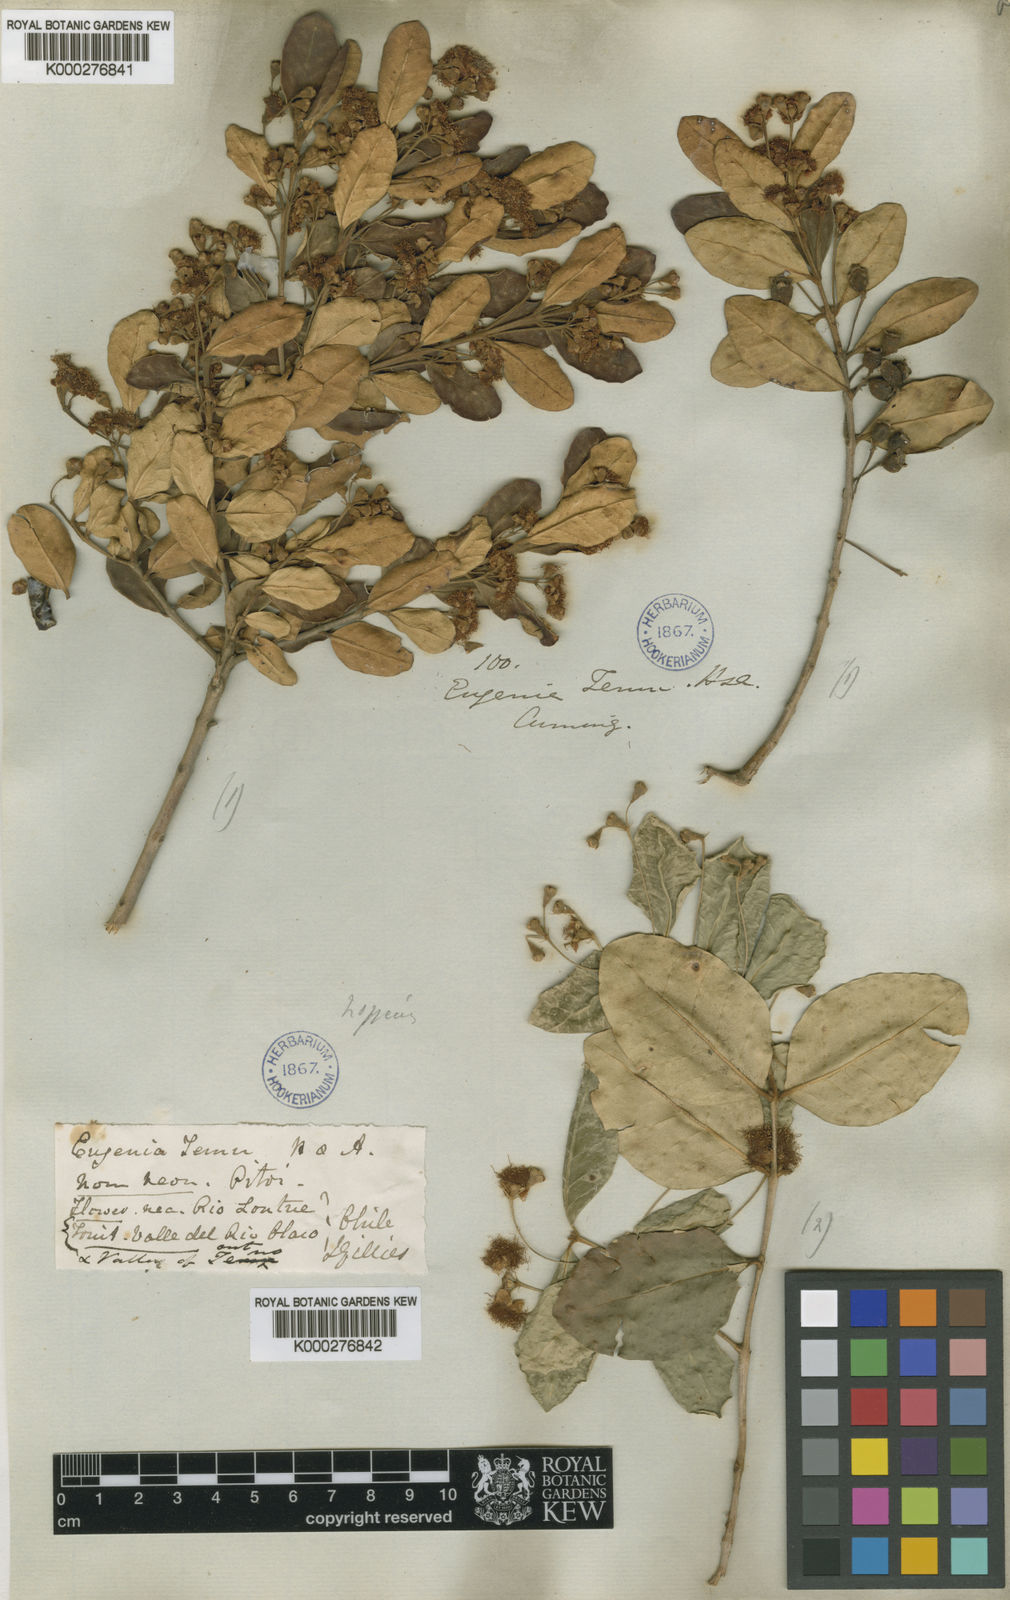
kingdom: Plantae
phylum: Tracheophyta
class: Magnoliopsida
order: Myrtales
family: Myrtaceae
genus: Myrceugenia
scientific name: Myrceugenia exsucca
